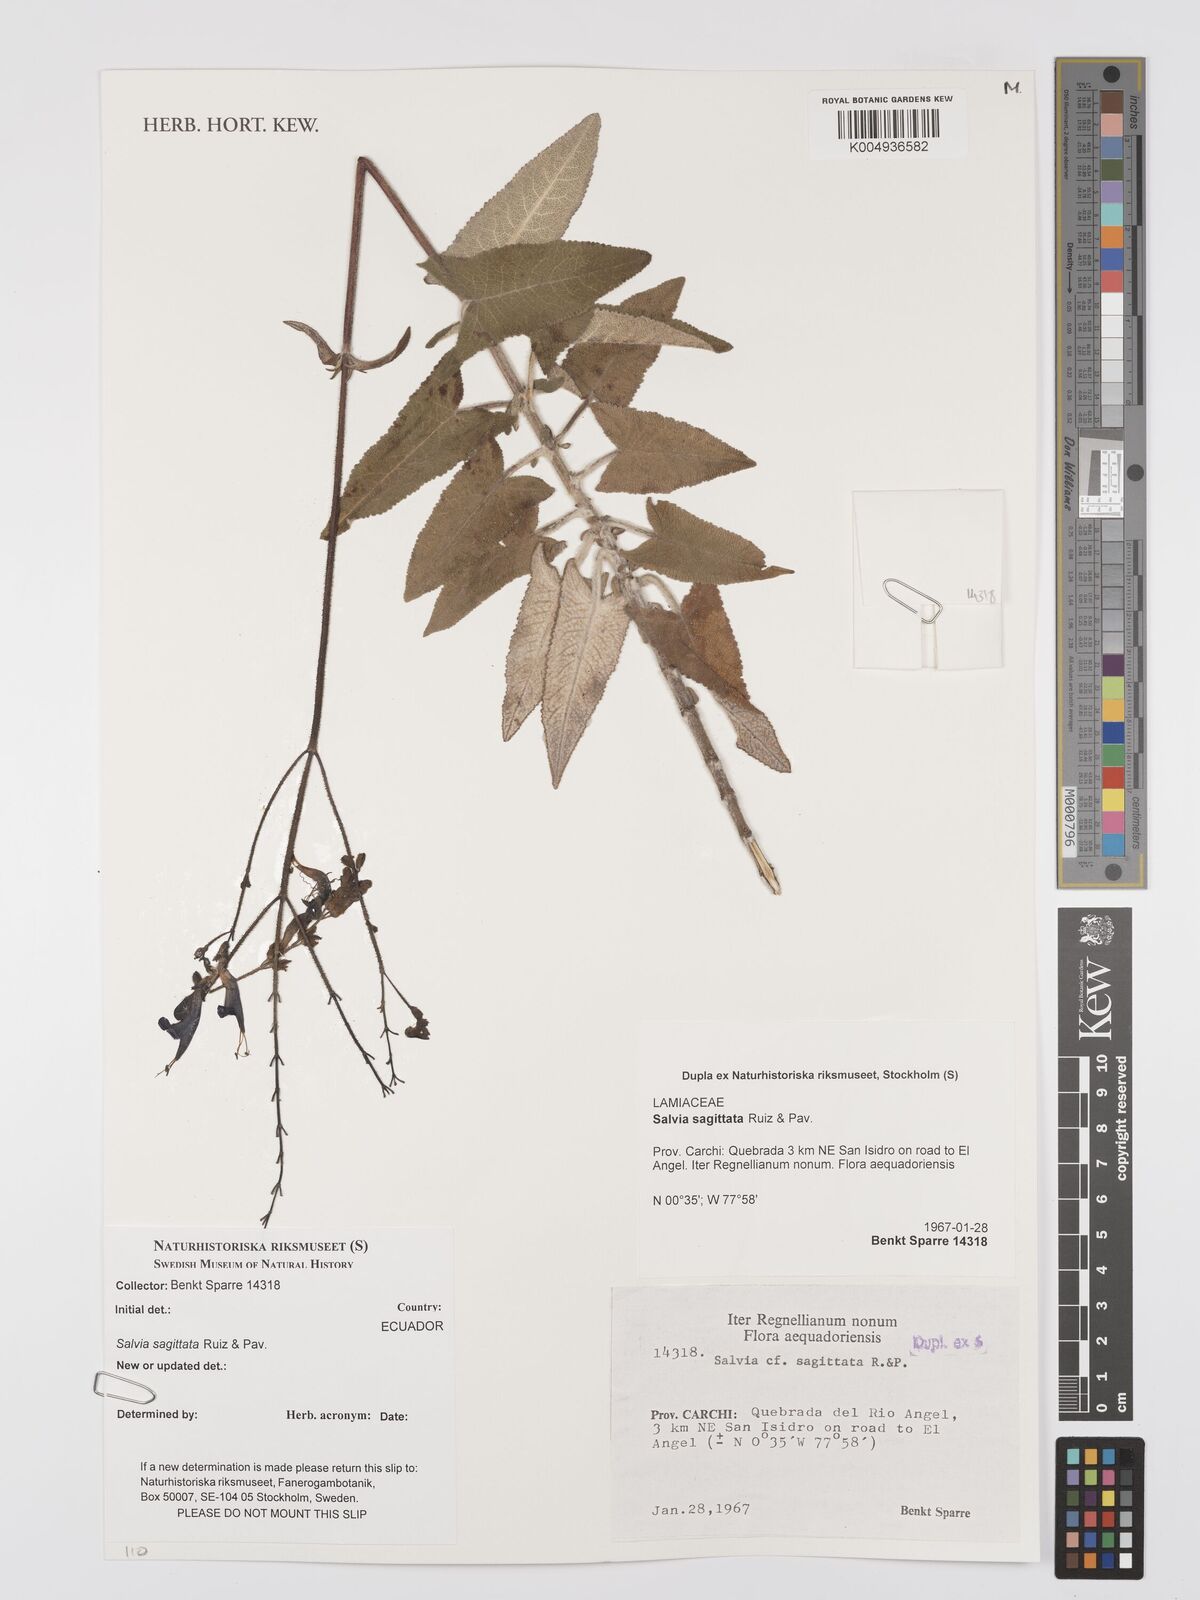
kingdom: Plantae
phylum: Tracheophyta
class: Magnoliopsida
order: Lamiales
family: Lamiaceae
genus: Salvia
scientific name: Salvia sagittata
